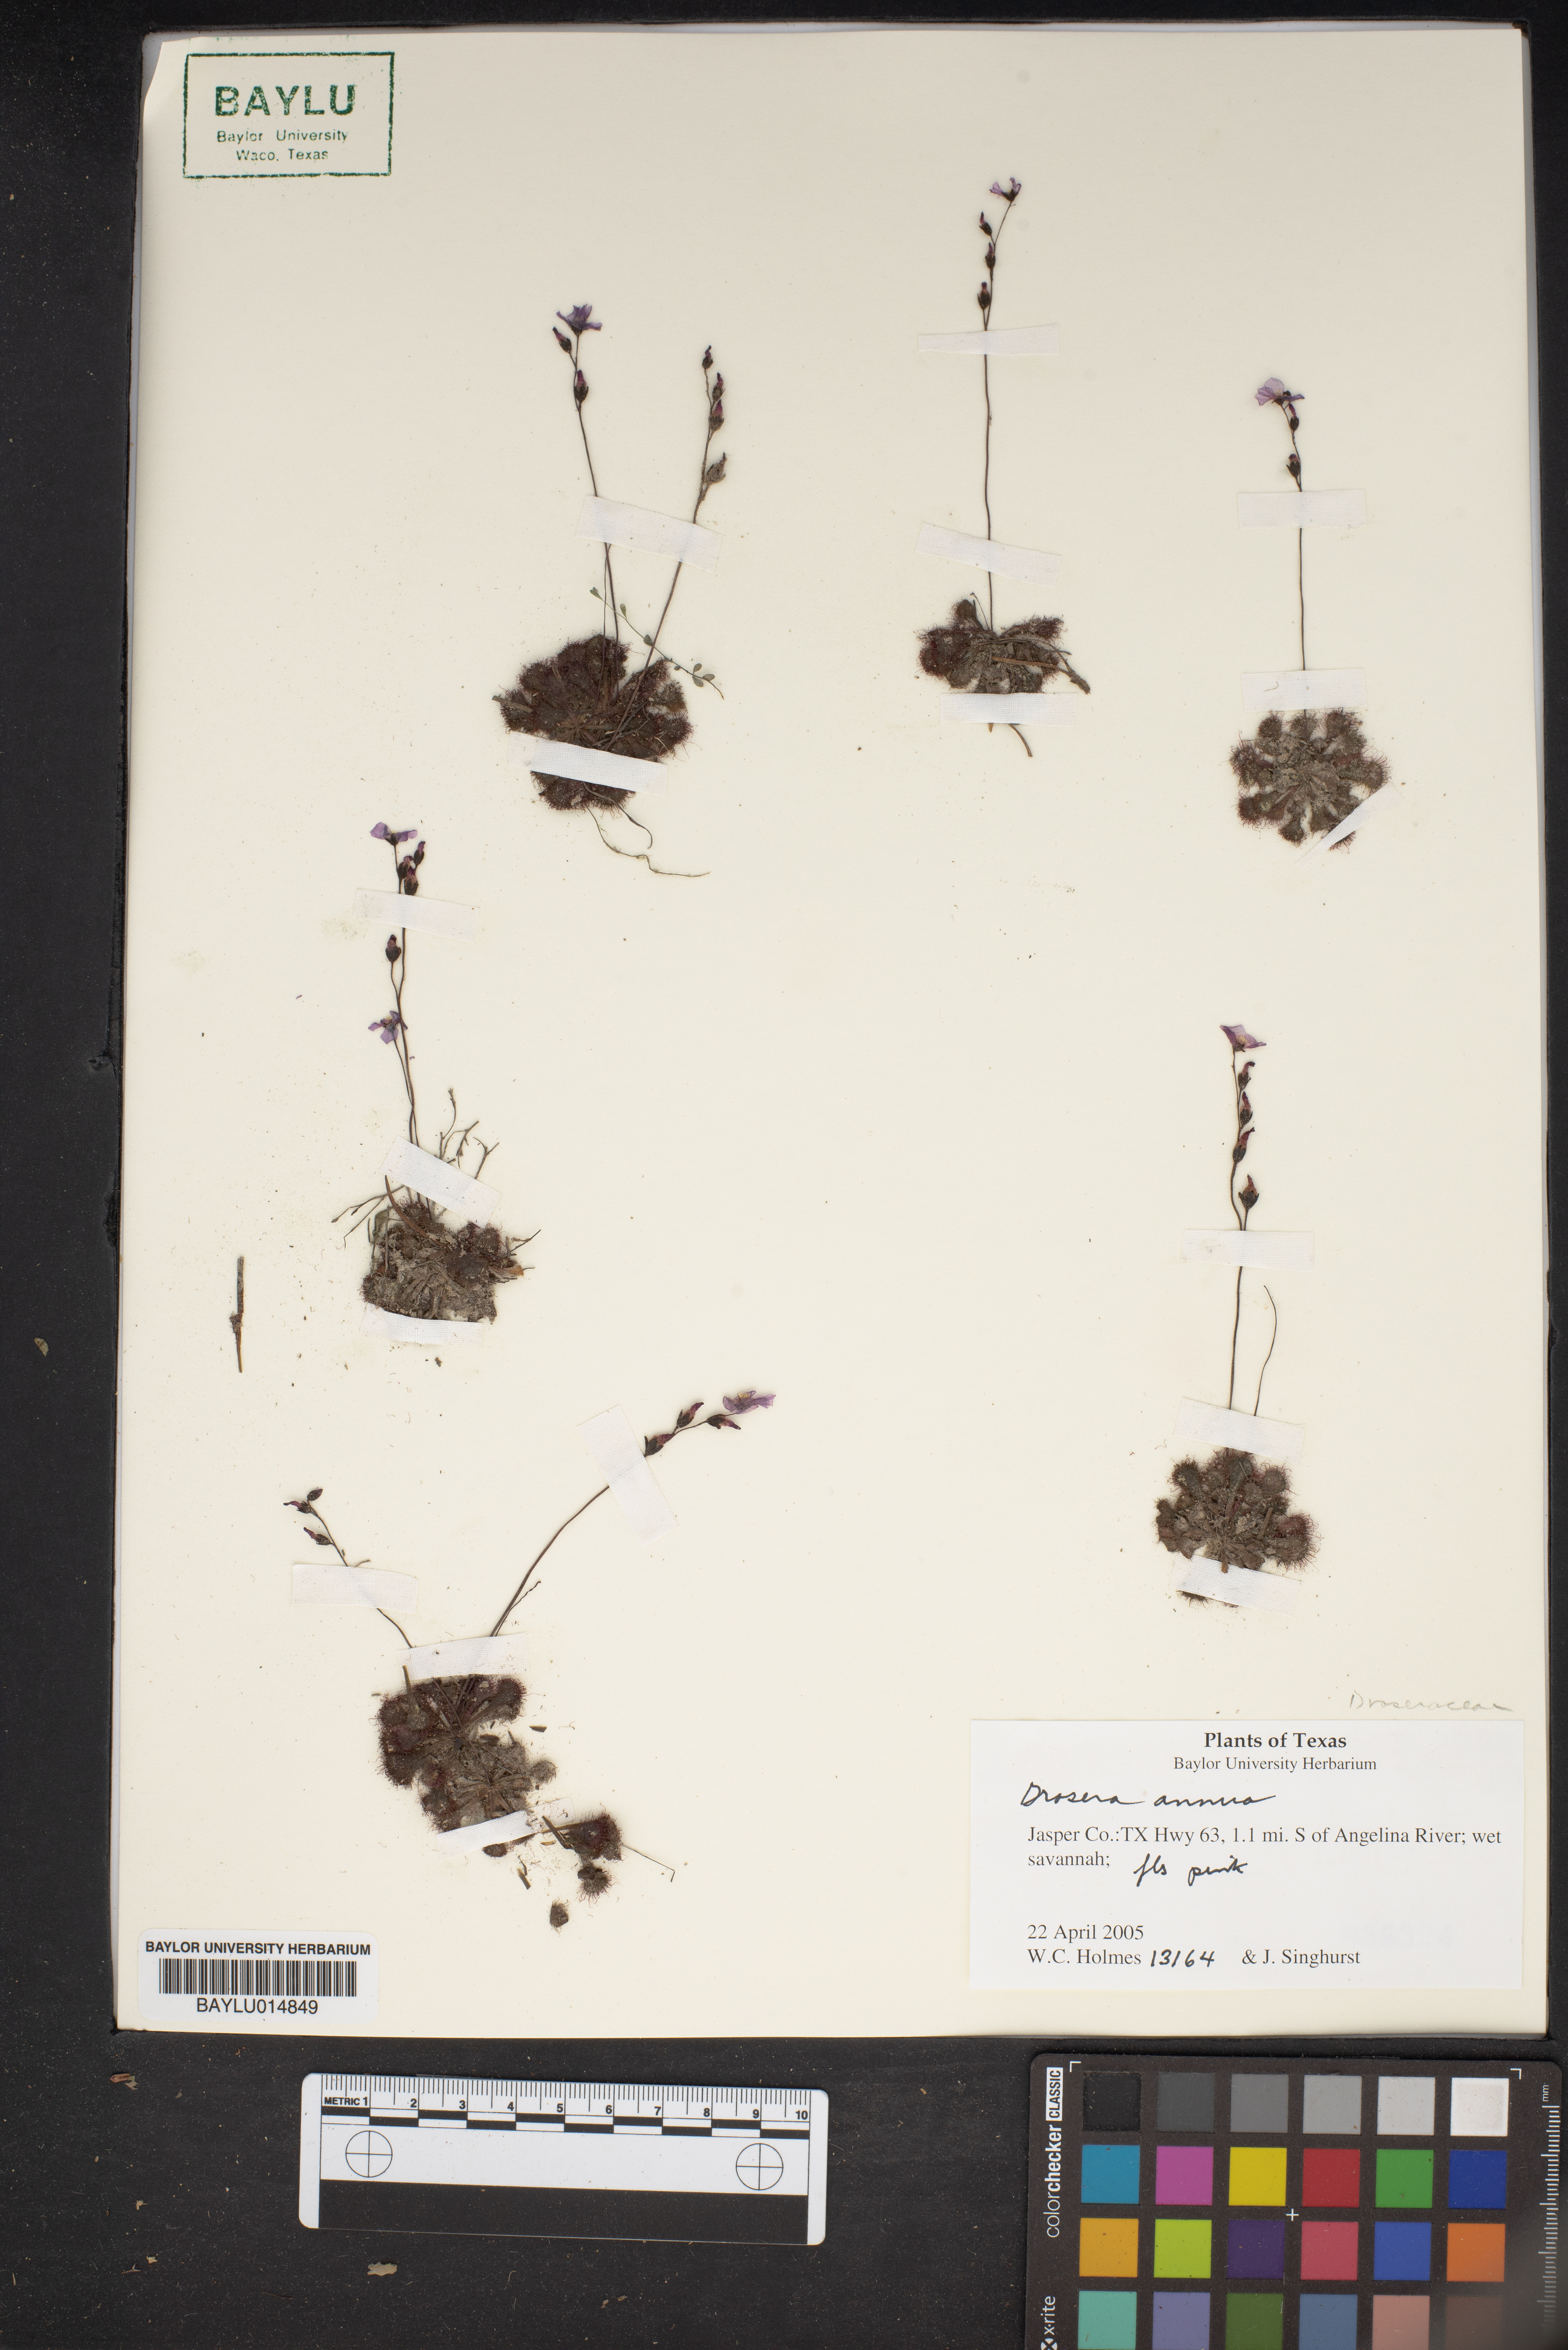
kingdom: Plantae
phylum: Tracheophyta
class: Magnoliopsida
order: Caryophyllales
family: Droseraceae
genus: Drosera
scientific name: Drosera brevifolia
